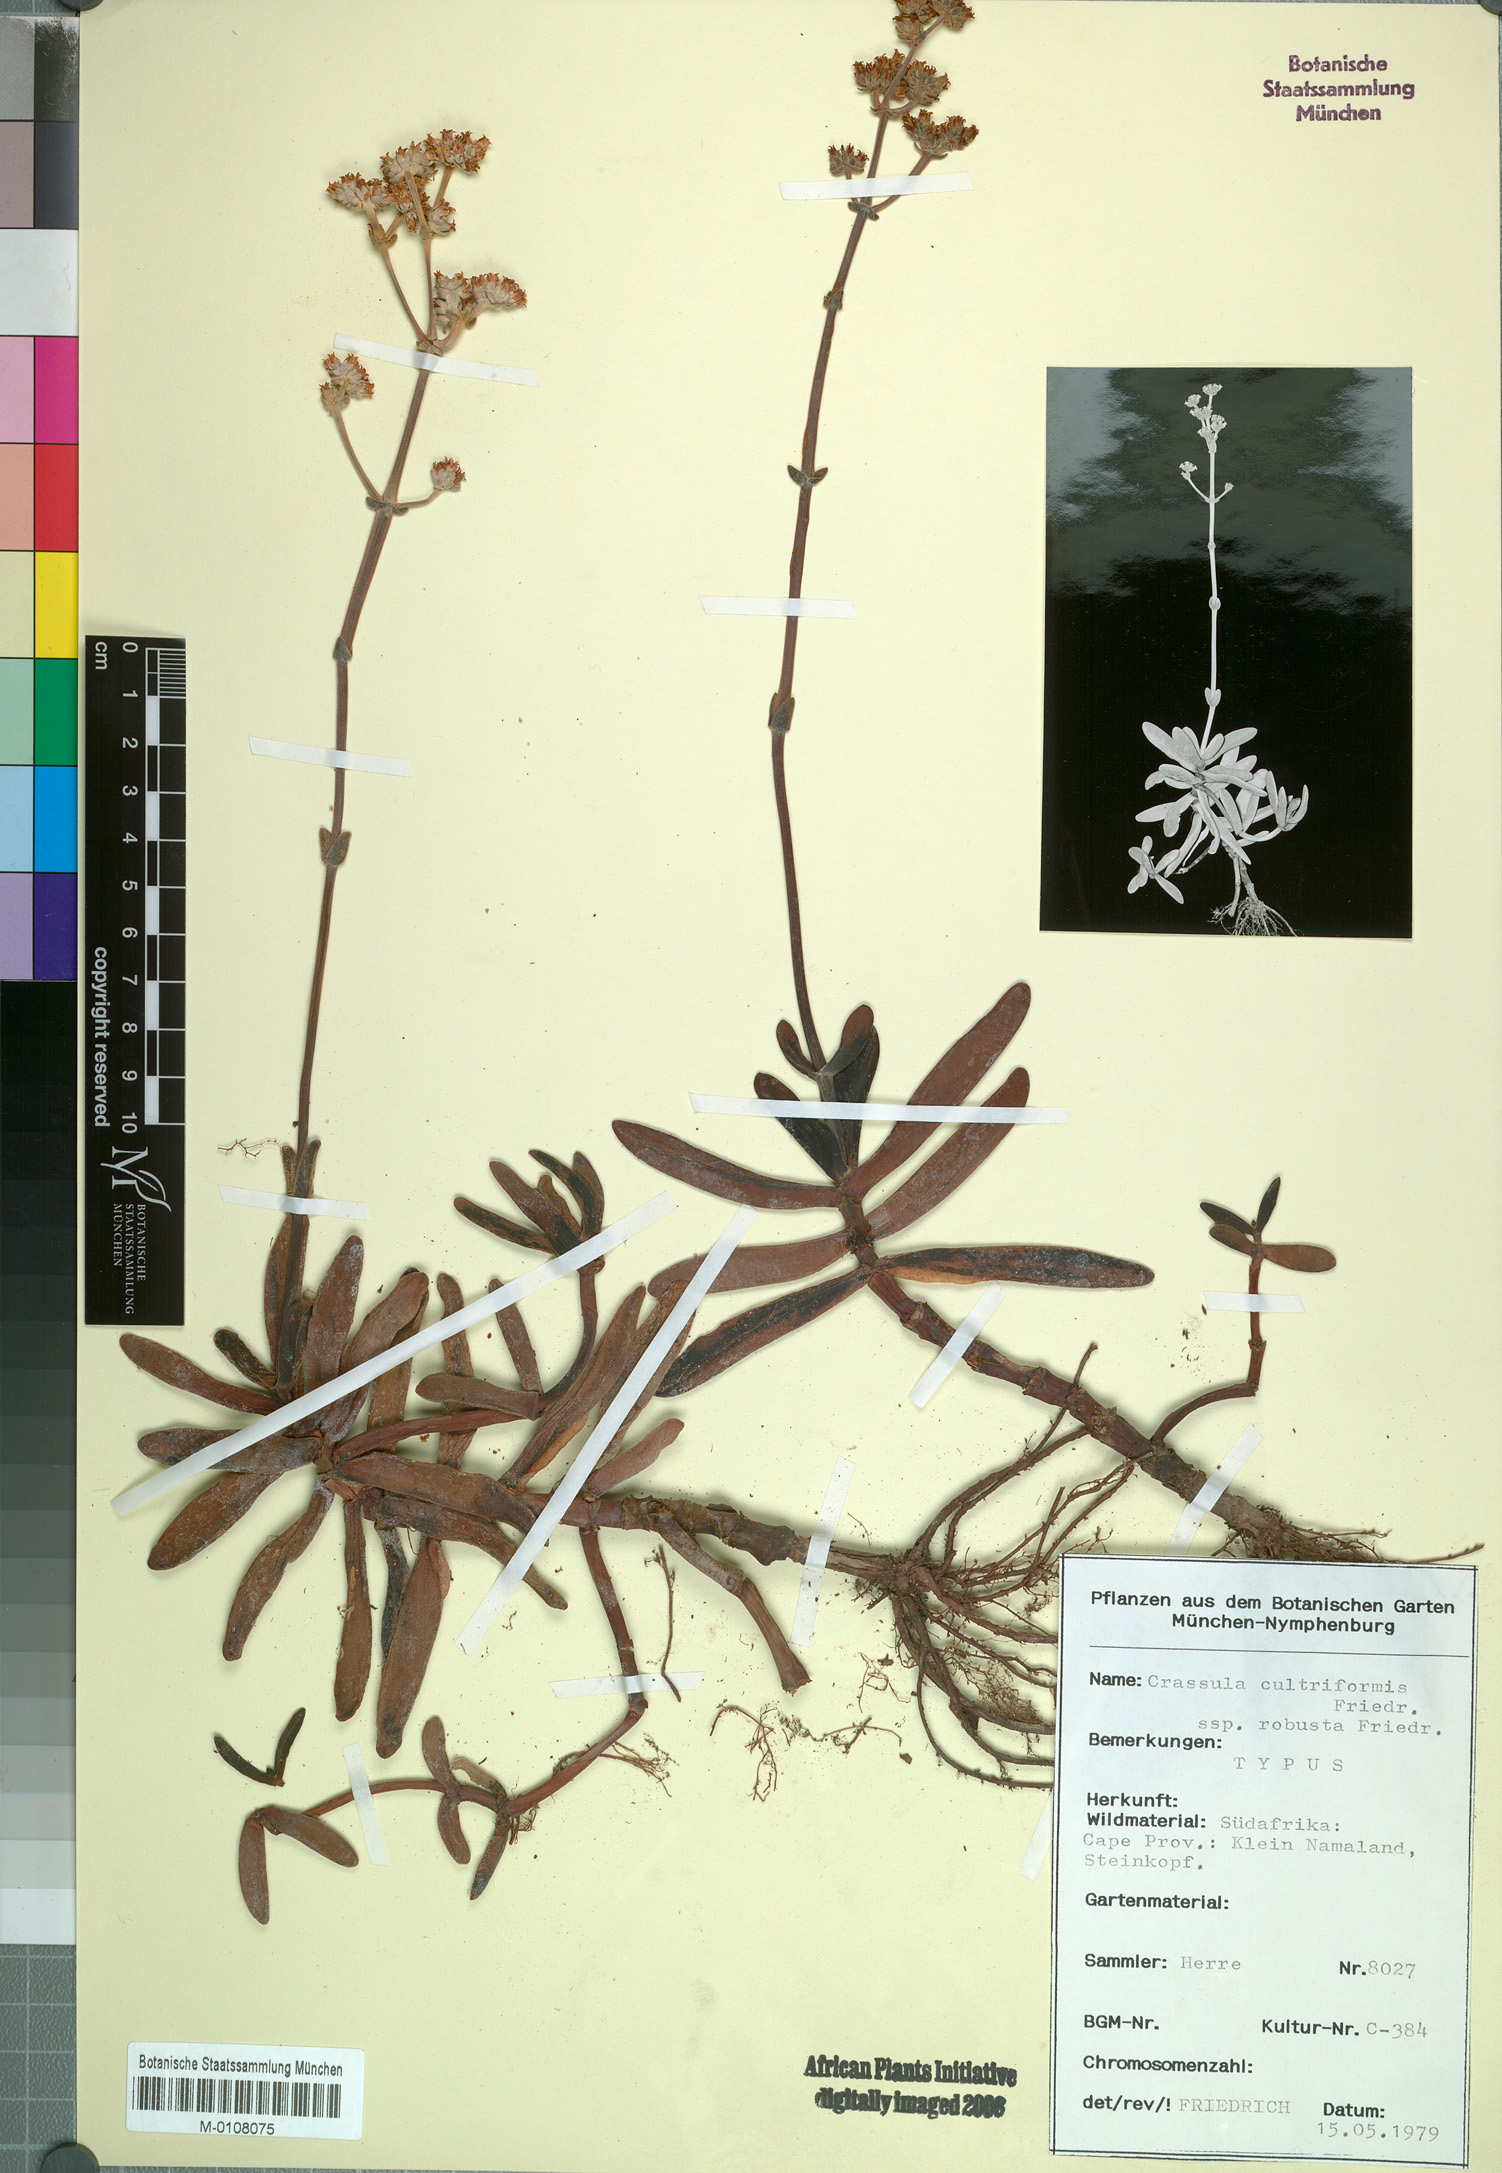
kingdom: Plantae
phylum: Tracheophyta
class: Magnoliopsida
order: Saxifragales
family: Crassulaceae
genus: Crassula
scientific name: Crassula atropurpurea
